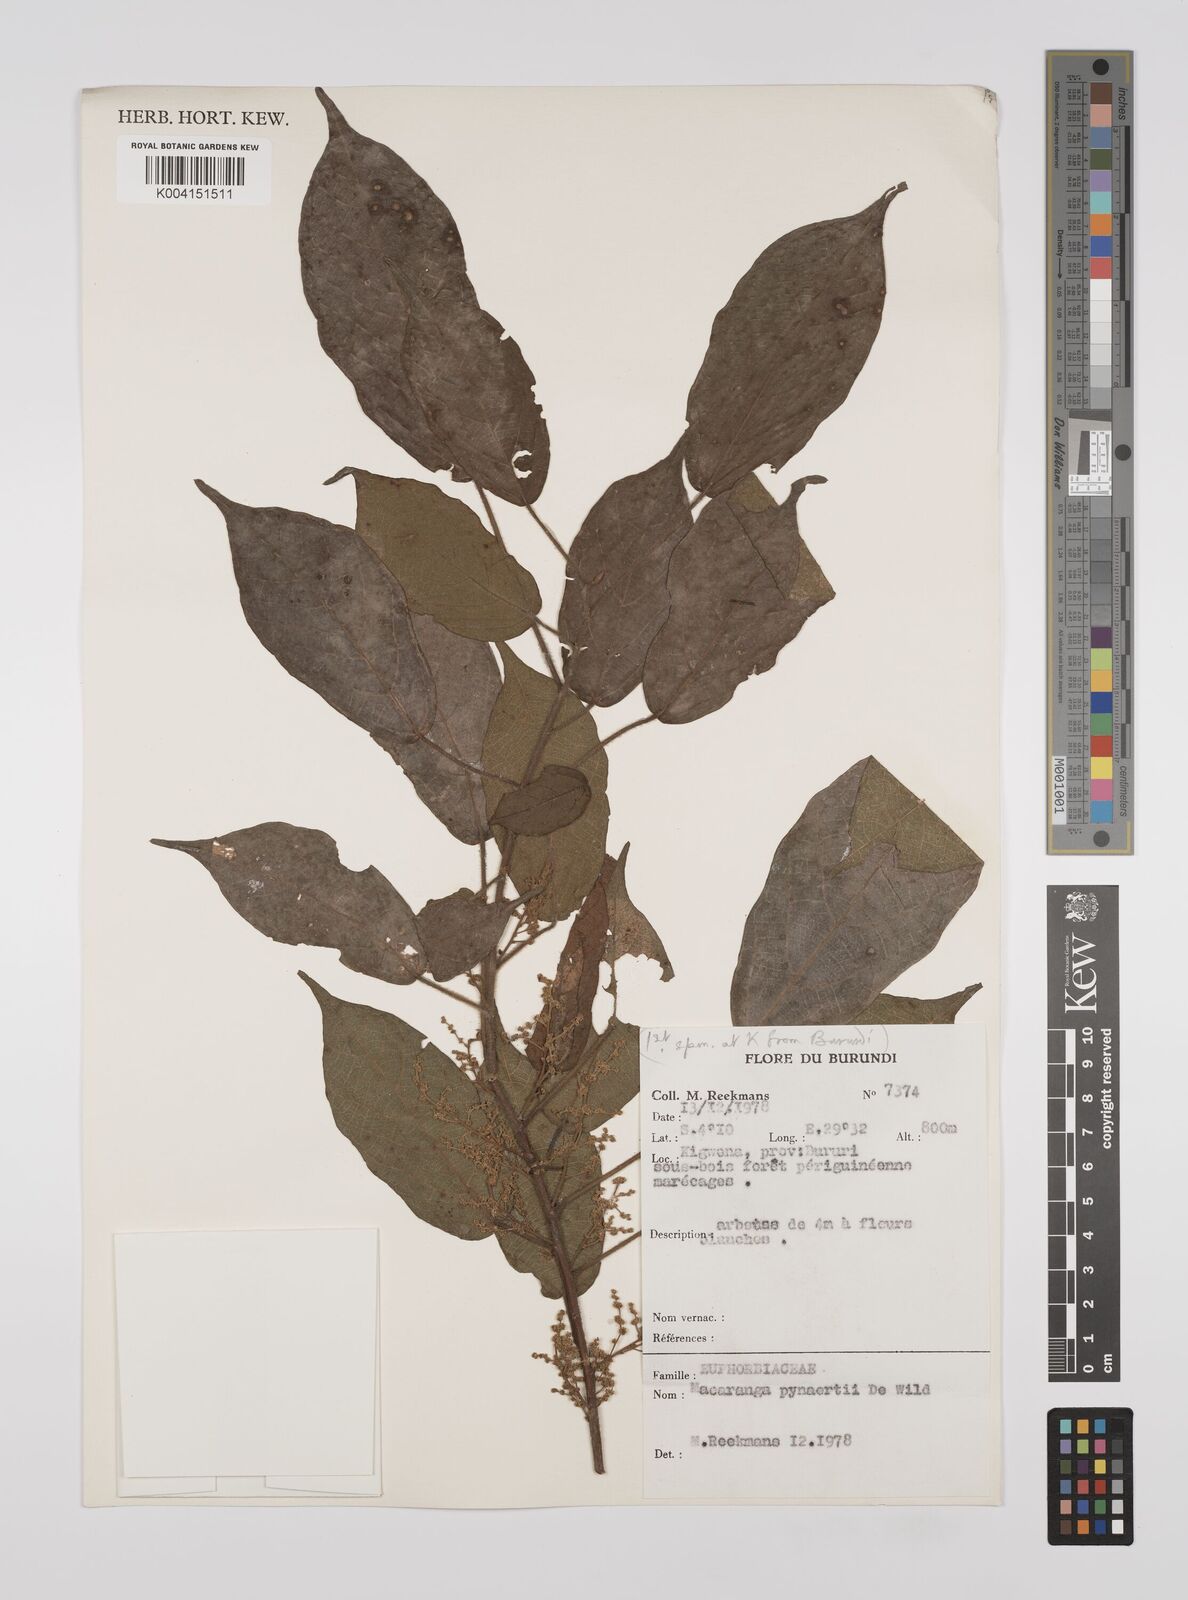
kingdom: Plantae
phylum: Tracheophyta
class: Magnoliopsida
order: Malpighiales
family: Euphorbiaceae
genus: Macaranga
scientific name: Macaranga spinosa
